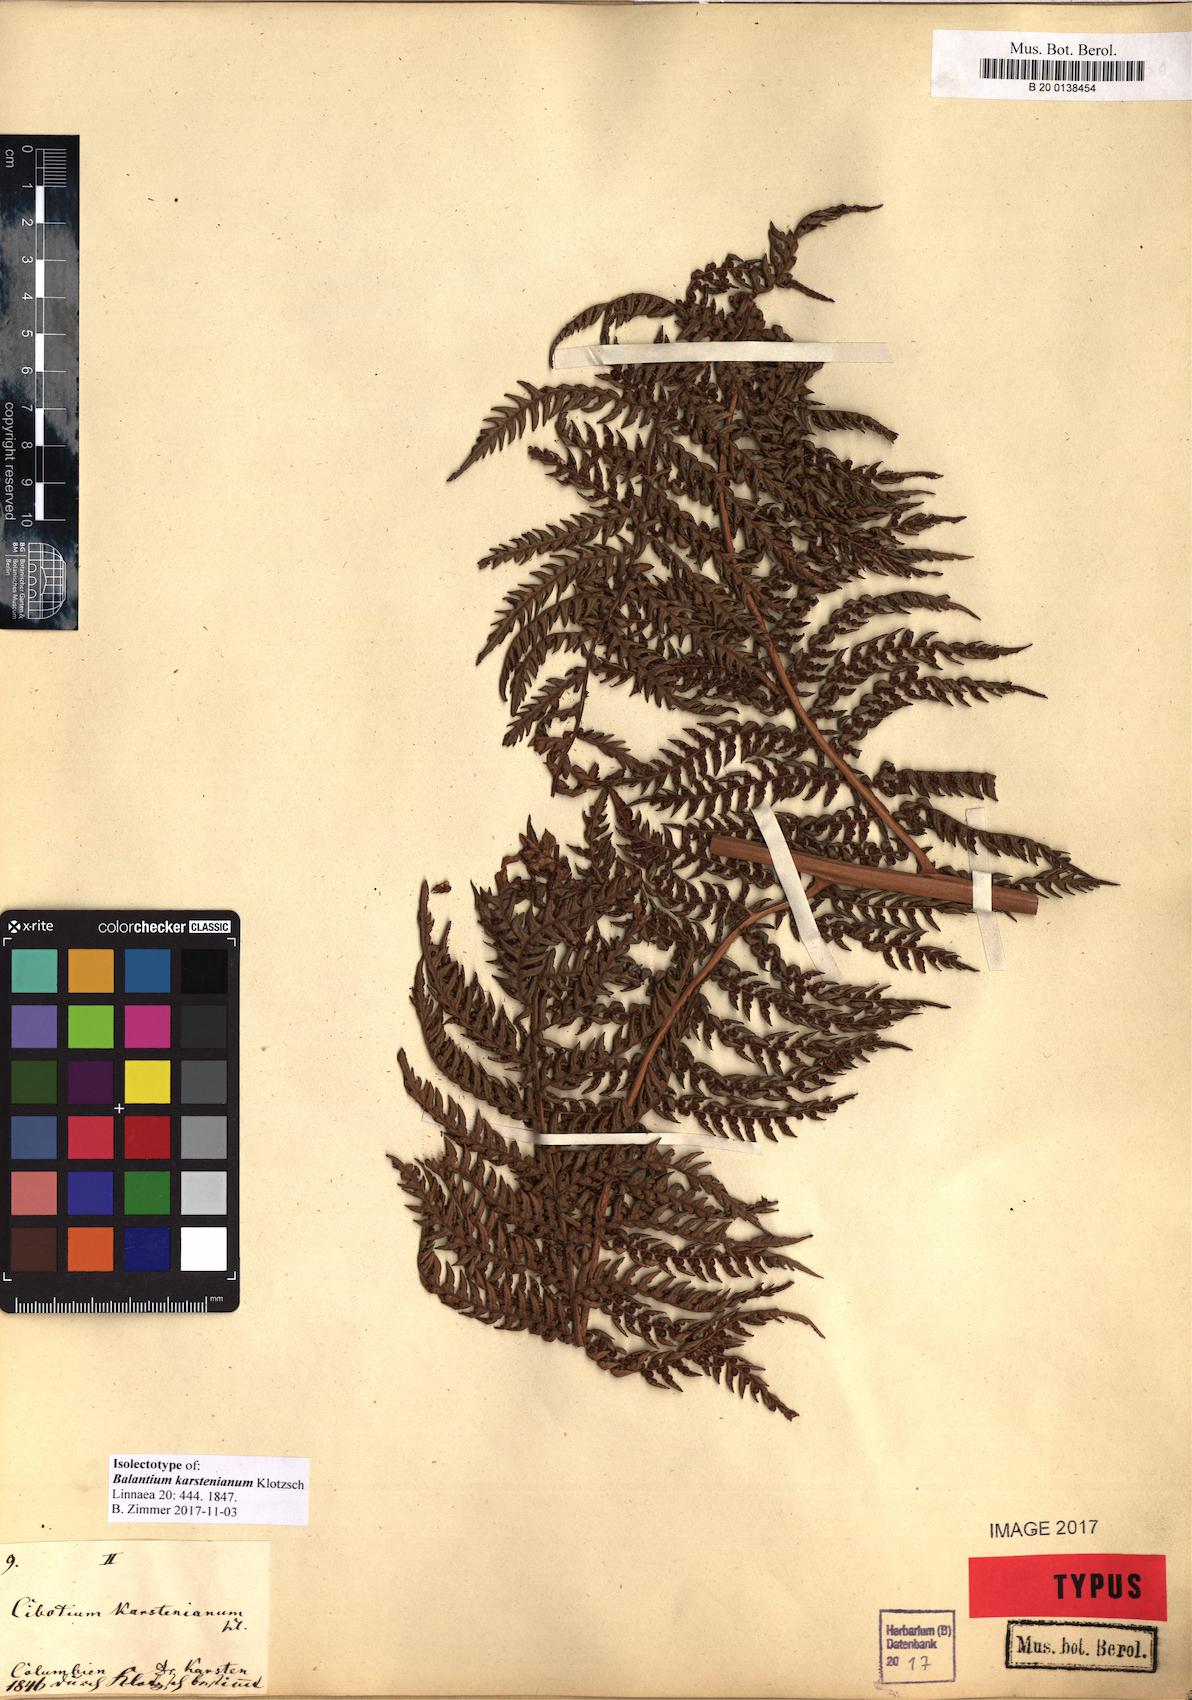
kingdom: Plantae
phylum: Tracheophyta
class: Polypodiopsida
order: Cyatheales
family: Dicksoniaceae
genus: Dicksonia
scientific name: Dicksonia karsteniana
